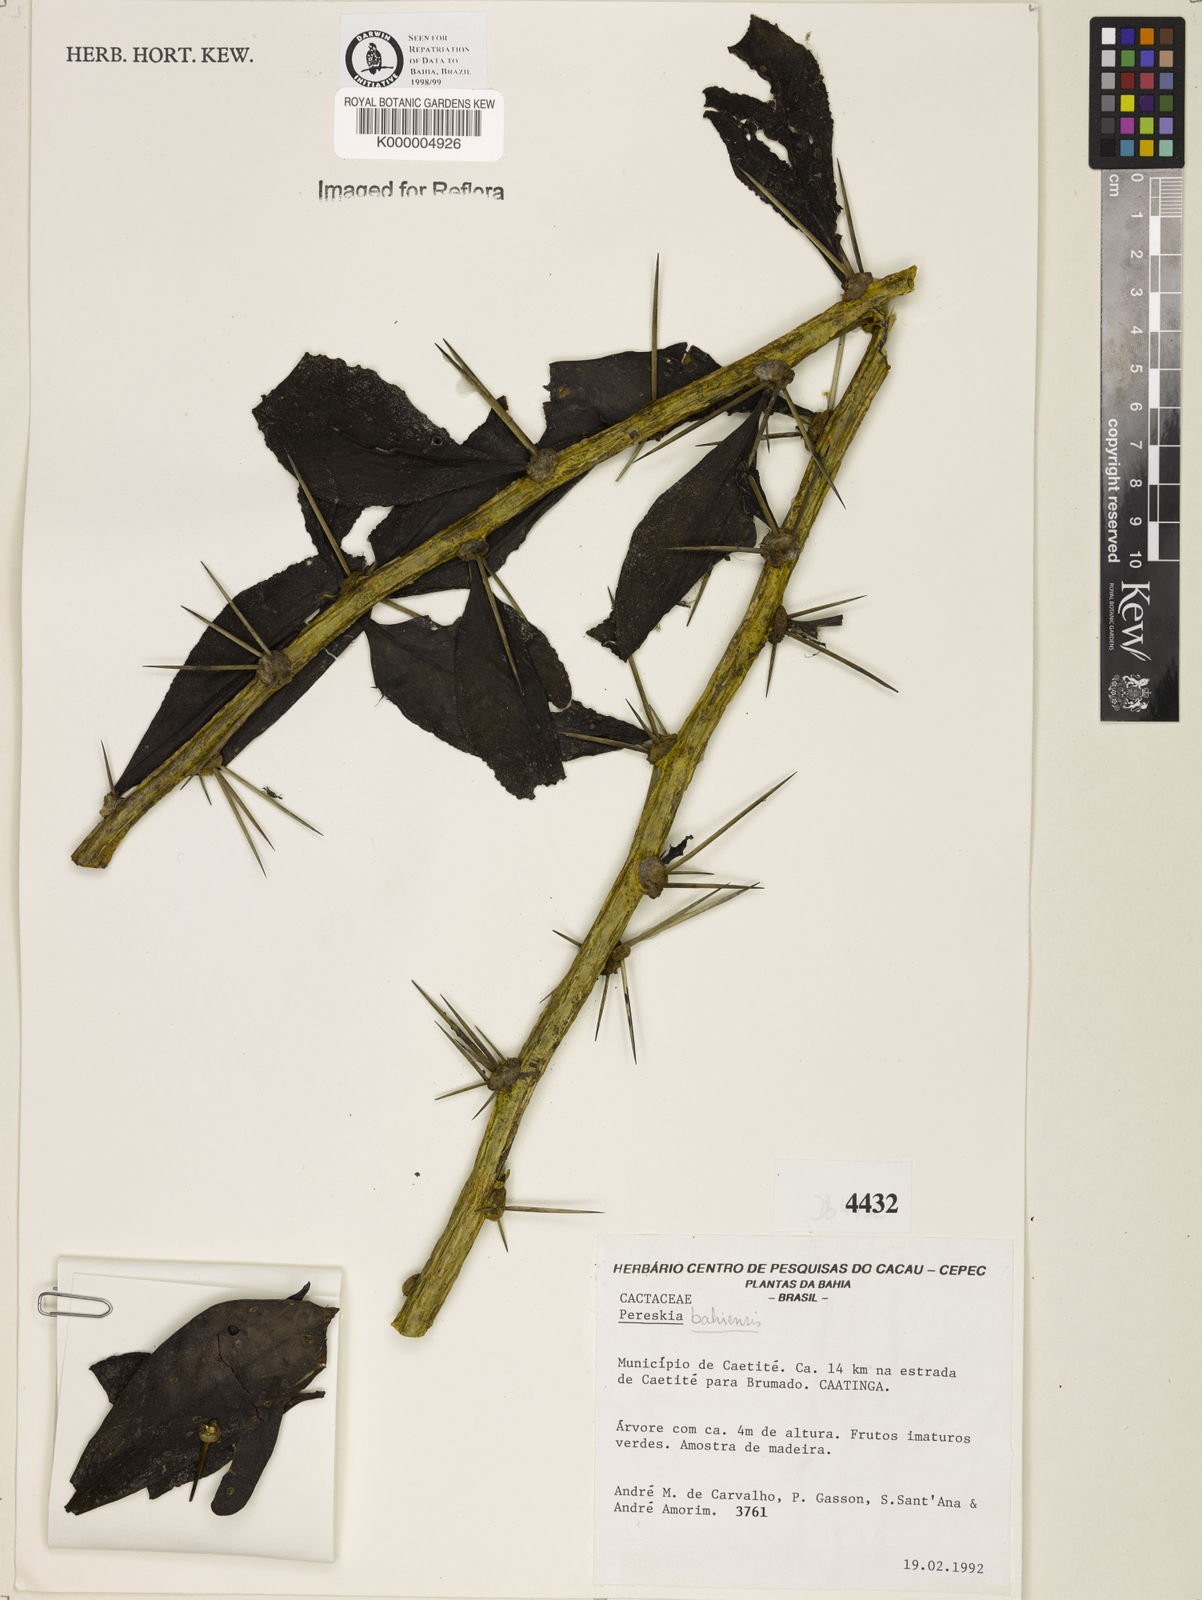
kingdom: Plantae
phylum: Tracheophyta
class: Magnoliopsida
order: Caryophyllales
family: Cactaceae
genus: Pereskia
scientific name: Pereskia
